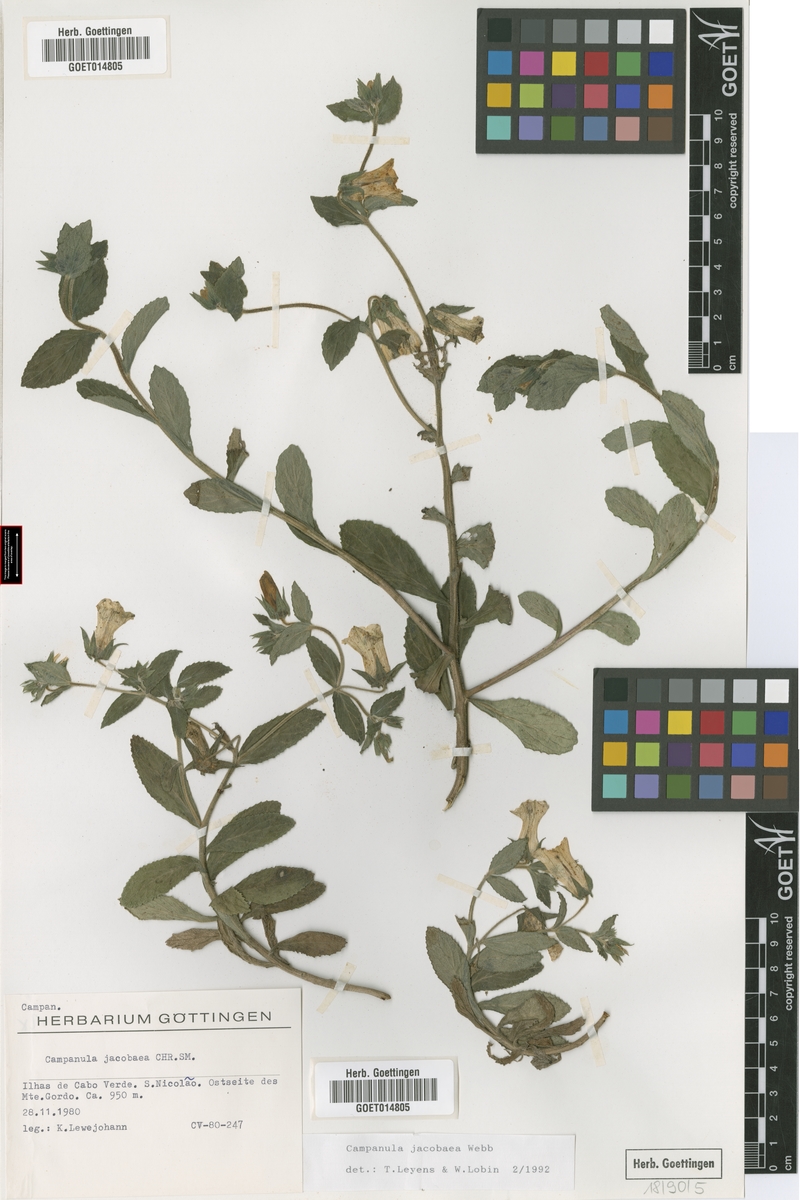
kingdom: Plantae
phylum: Tracheophyta
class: Magnoliopsida
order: Asterales
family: Campanulaceae
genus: Campanula
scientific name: Campanula jacobaea
